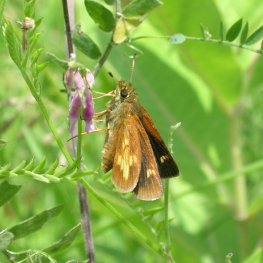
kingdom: Animalia
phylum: Arthropoda
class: Insecta
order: Lepidoptera
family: Hesperiidae
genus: Poanes
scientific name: Poanes massasoit
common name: Mulberry Wing
